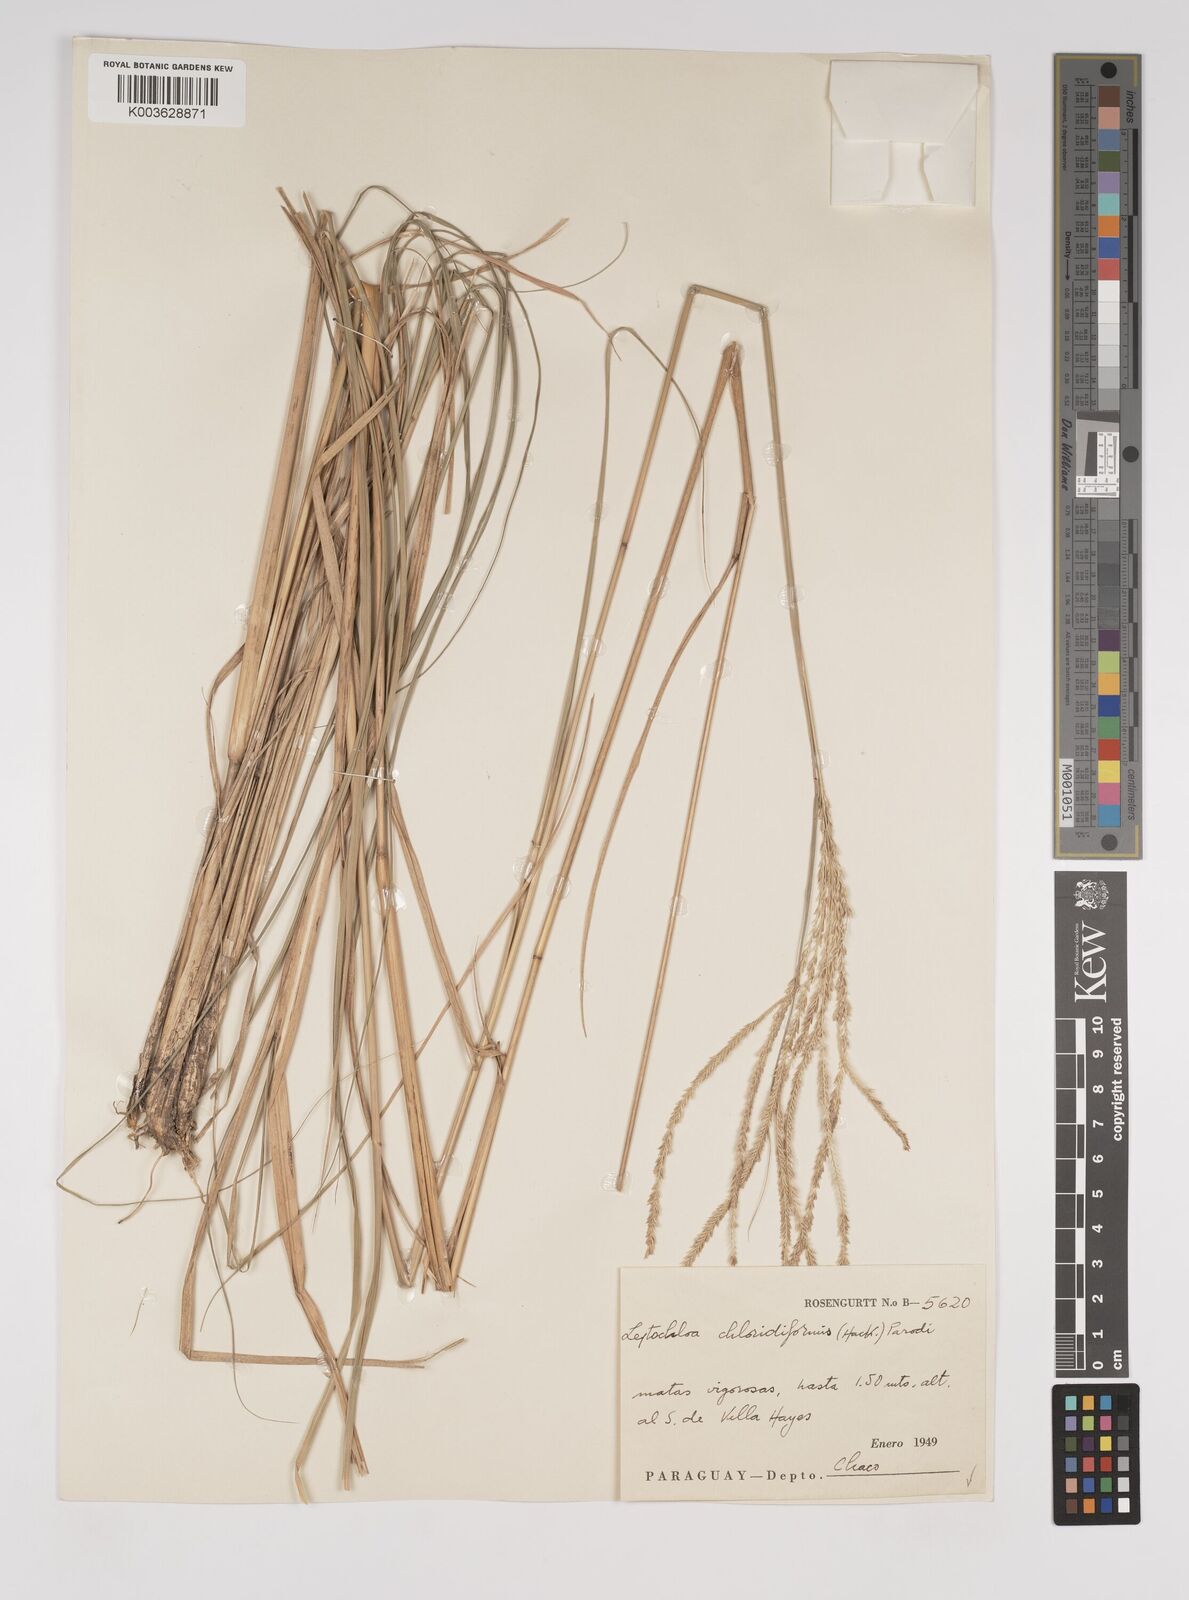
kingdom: Plantae
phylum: Tracheophyta
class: Liliopsida
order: Poales
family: Poaceae
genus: Leptochloa
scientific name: Leptochloa chloridiformis
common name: Argentine sprangletop
